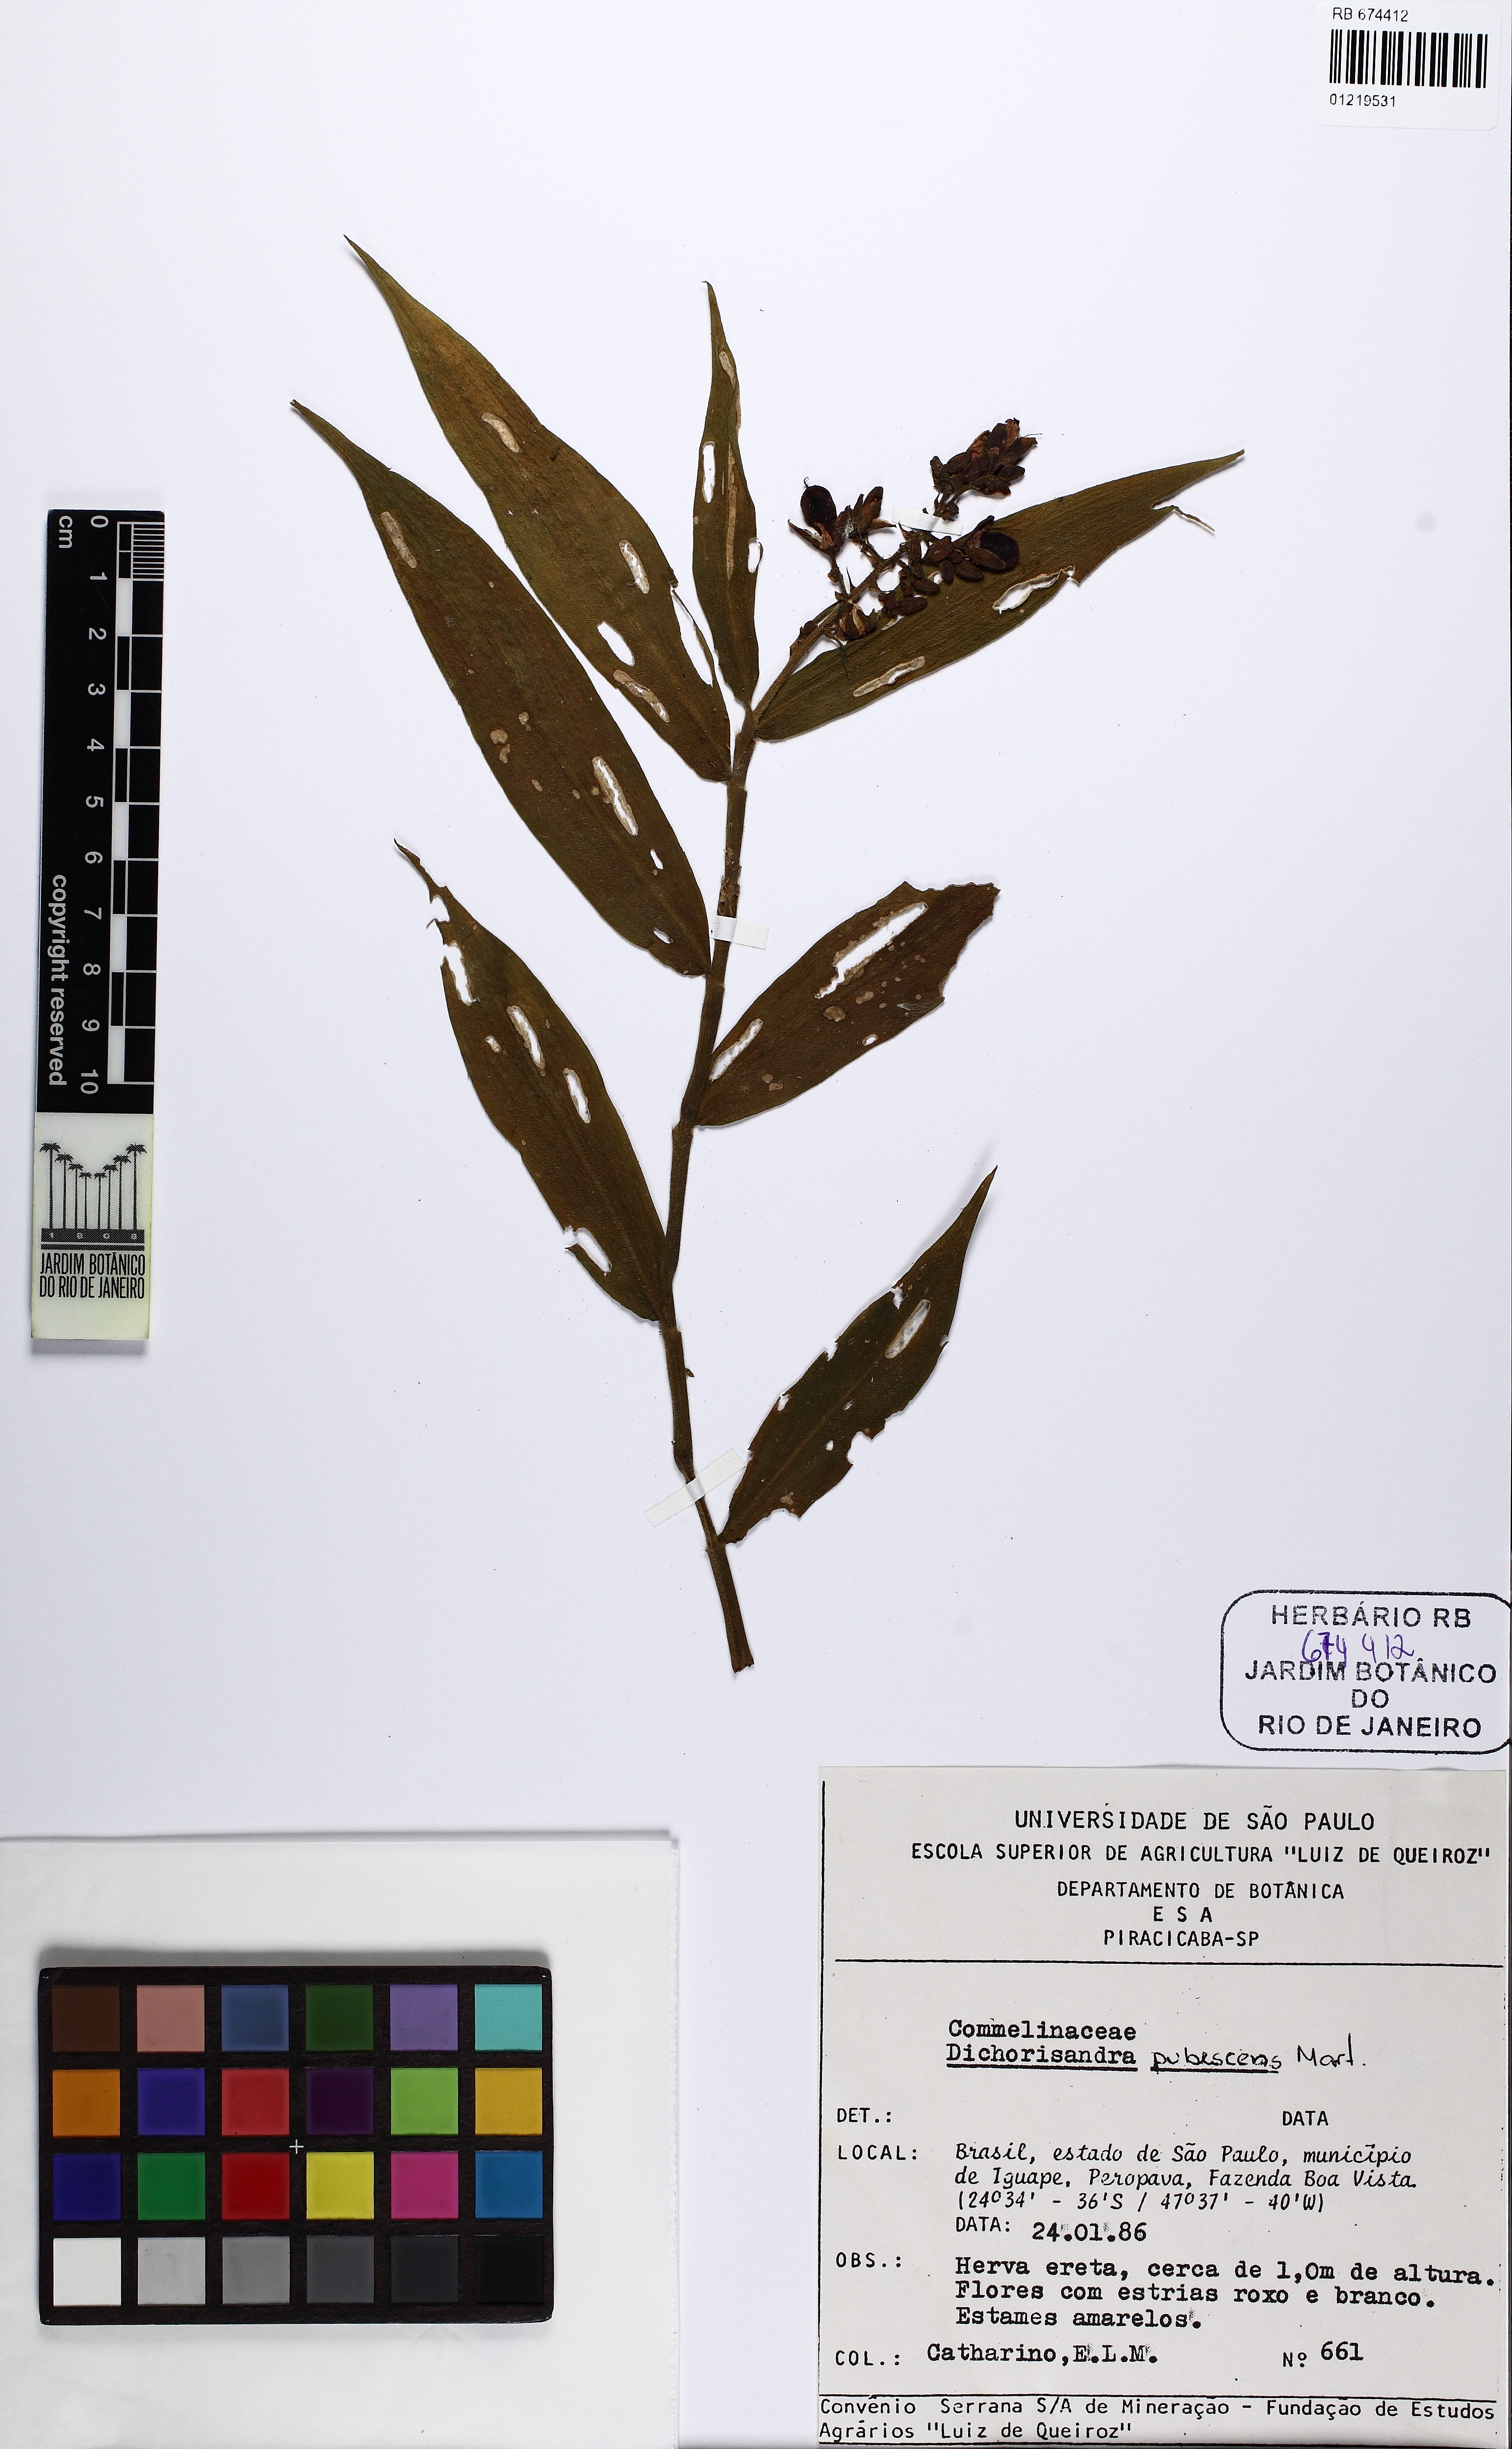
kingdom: Plantae
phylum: Tracheophyta
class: Liliopsida
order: Commelinales
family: Commelinaceae
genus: Dichorisandra
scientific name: Dichorisandra pubescens
